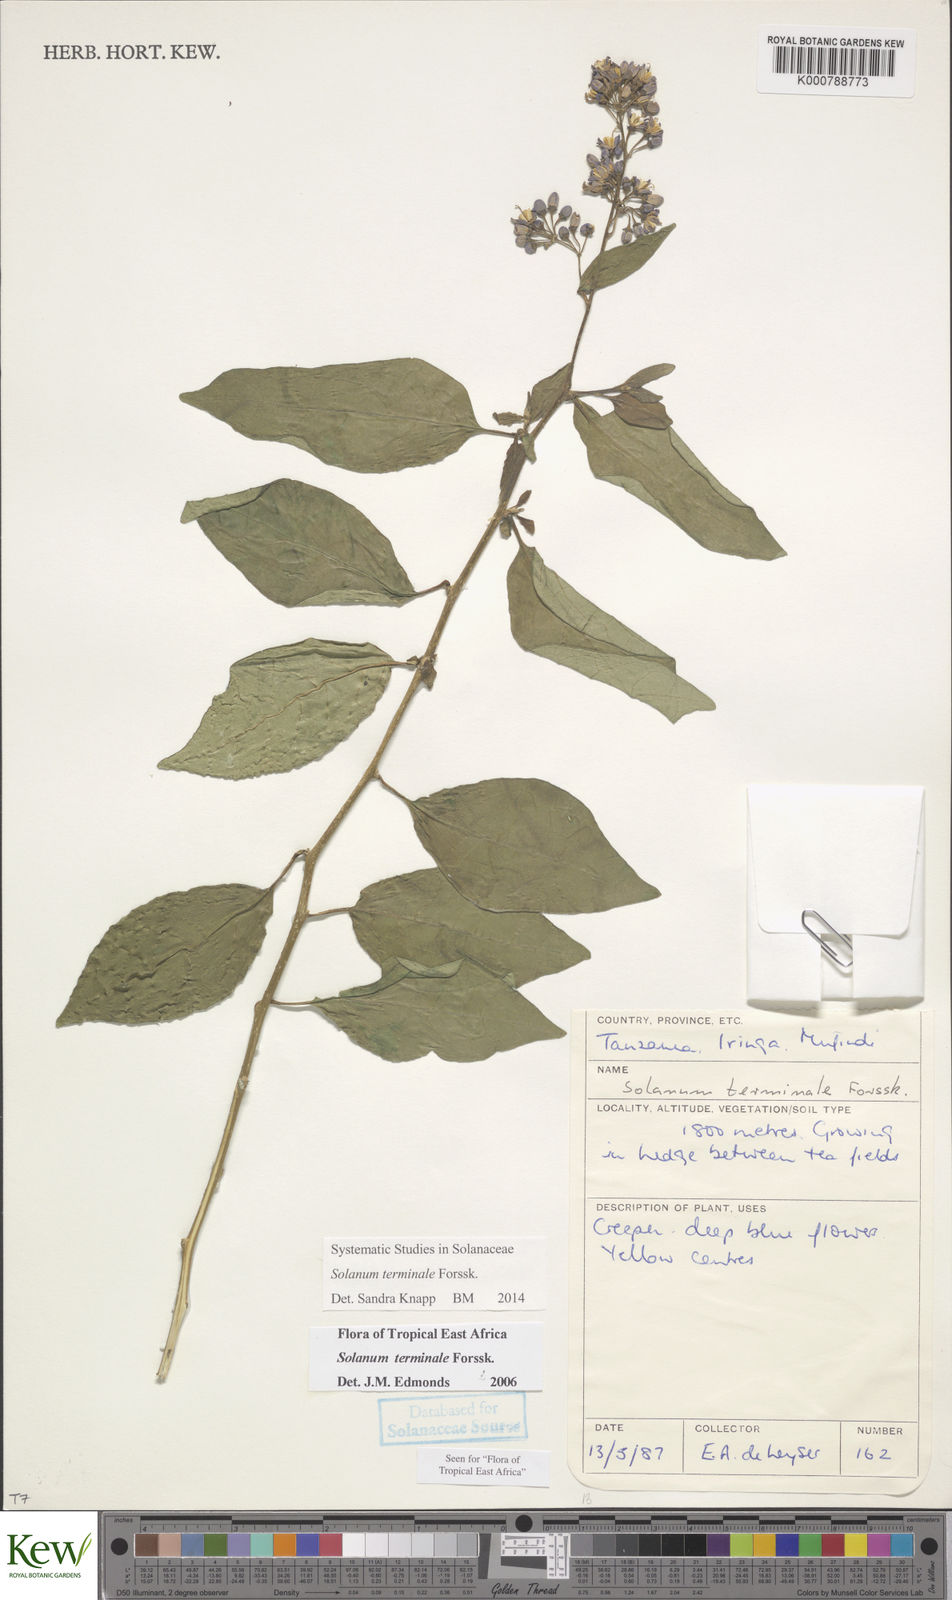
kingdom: Plantae
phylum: Tracheophyta
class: Magnoliopsida
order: Solanales
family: Solanaceae
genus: Solanum
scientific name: Solanum terminale
